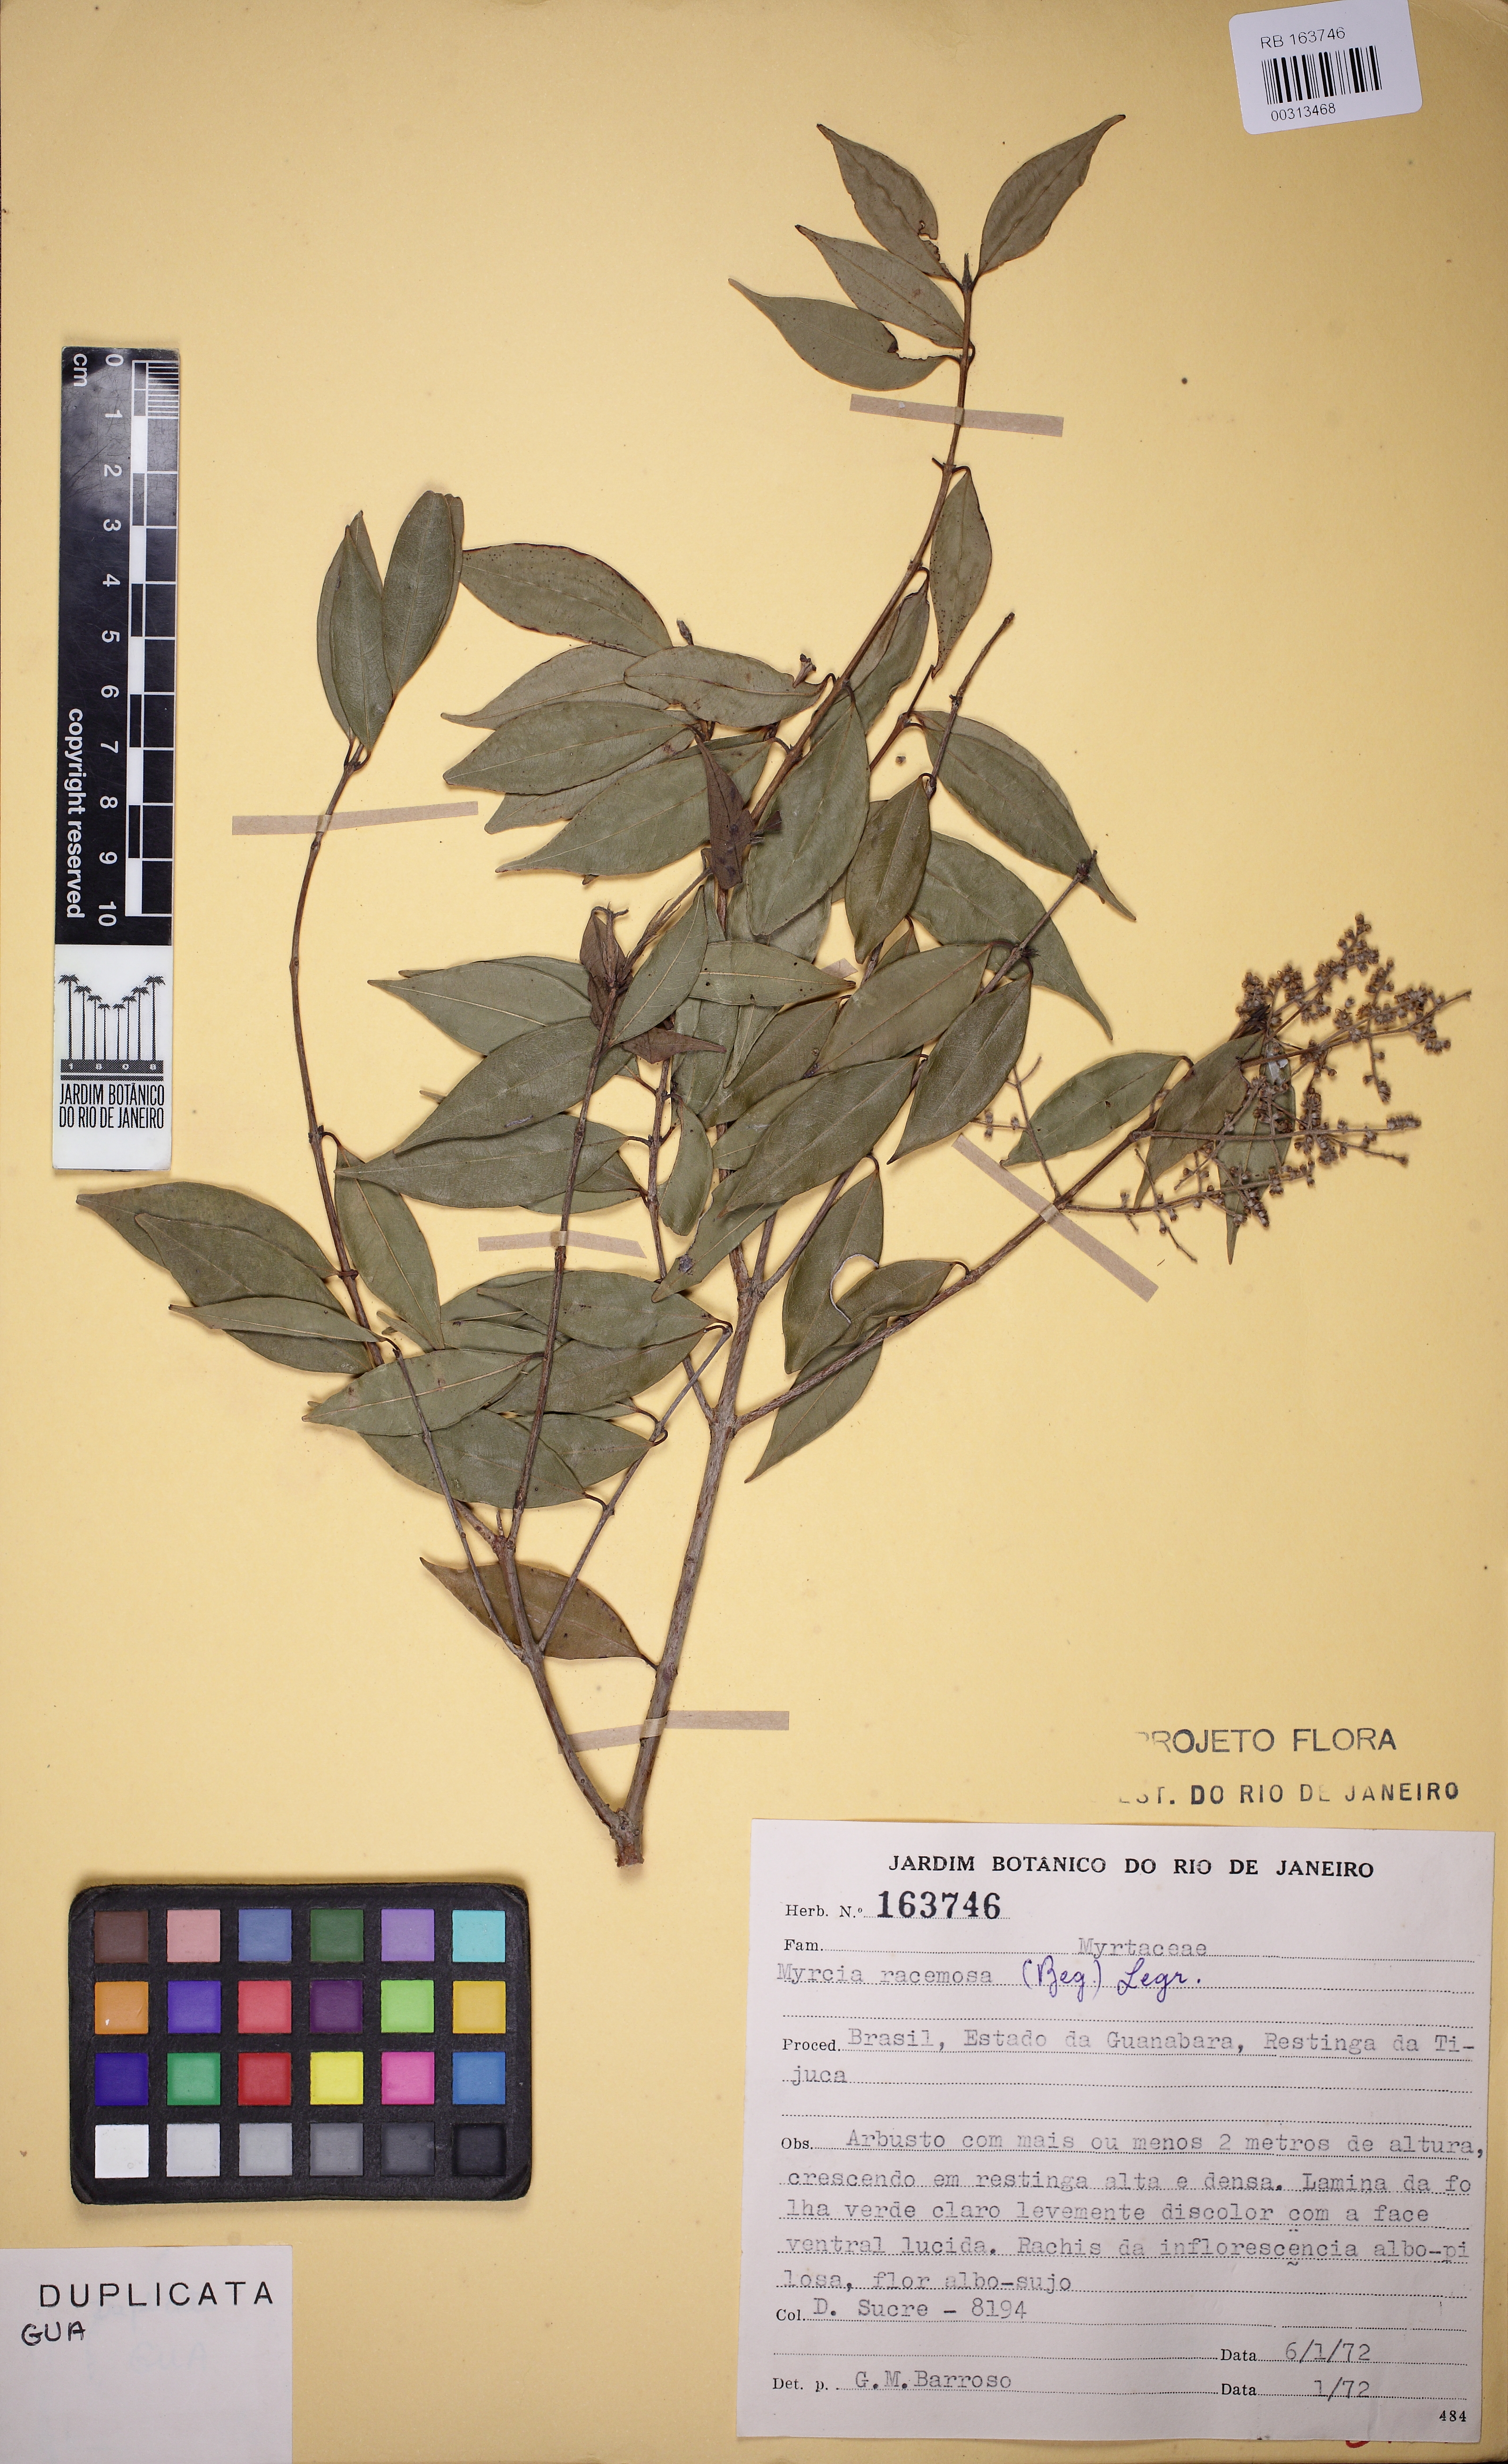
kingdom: Plantae
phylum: Tracheophyta
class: Magnoliopsida
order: Myrtales
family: Myrtaceae
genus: Myrcia
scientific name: Myrcia racemosa
